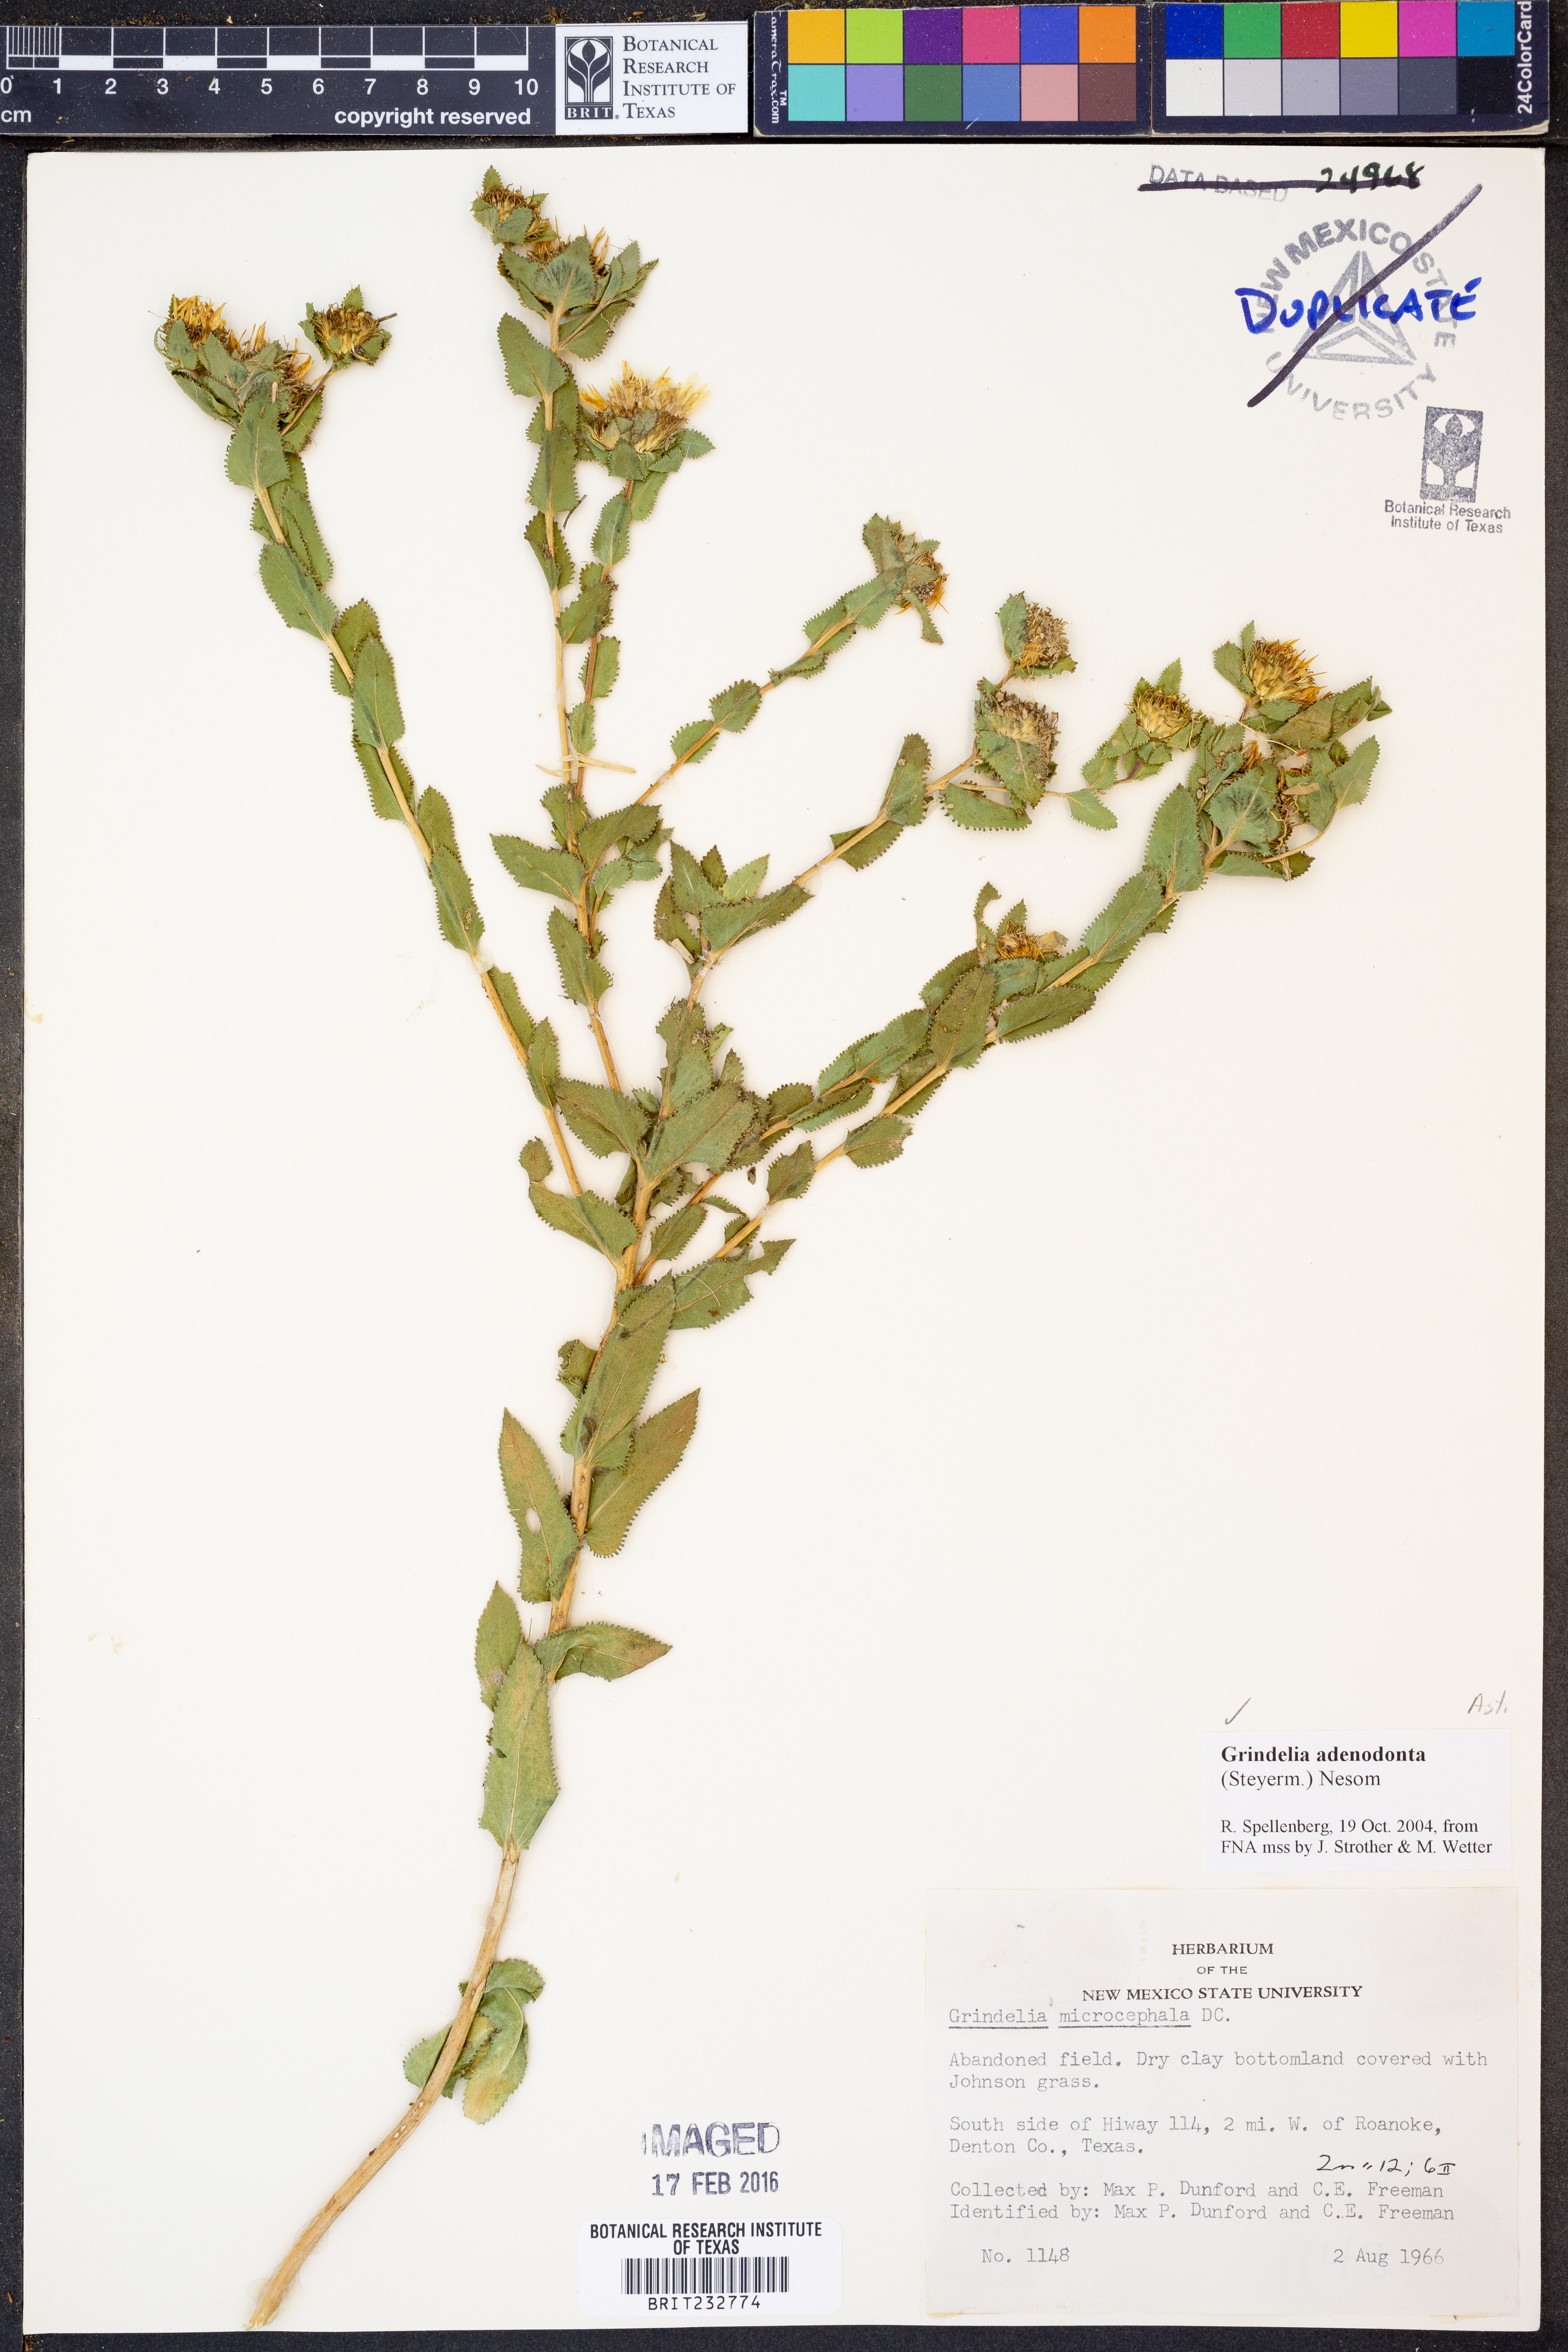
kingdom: Plantae
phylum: Tracheophyta
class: Magnoliopsida
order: Asterales
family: Asteraceae
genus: Grindelia
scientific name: Grindelia adenodonta
